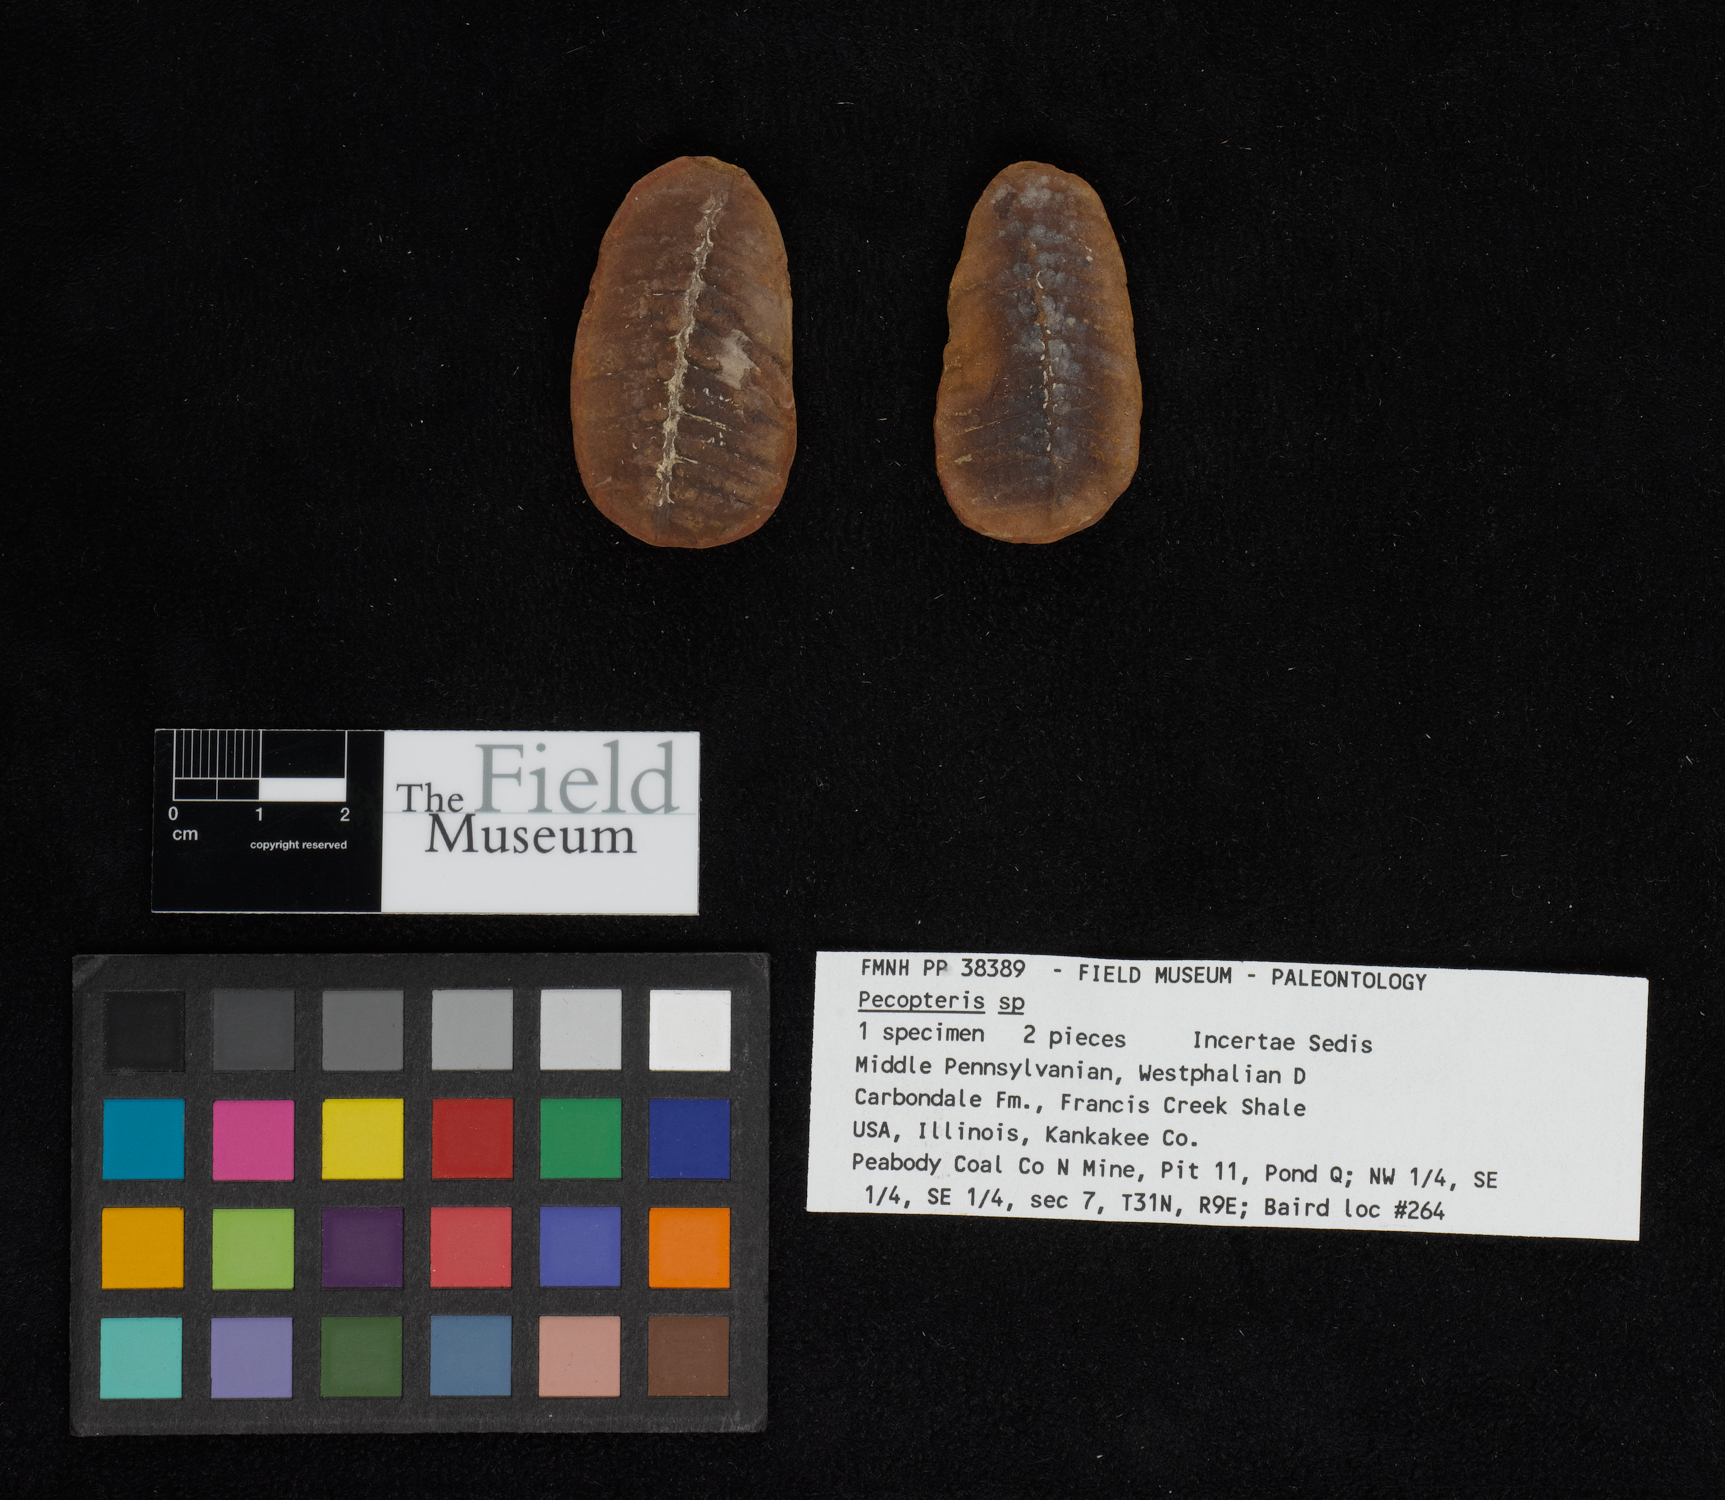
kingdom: Plantae
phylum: Tracheophyta
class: Polypodiopsida
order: Marattiales
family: Asterothecaceae
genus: Pecopteris
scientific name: Pecopteris
